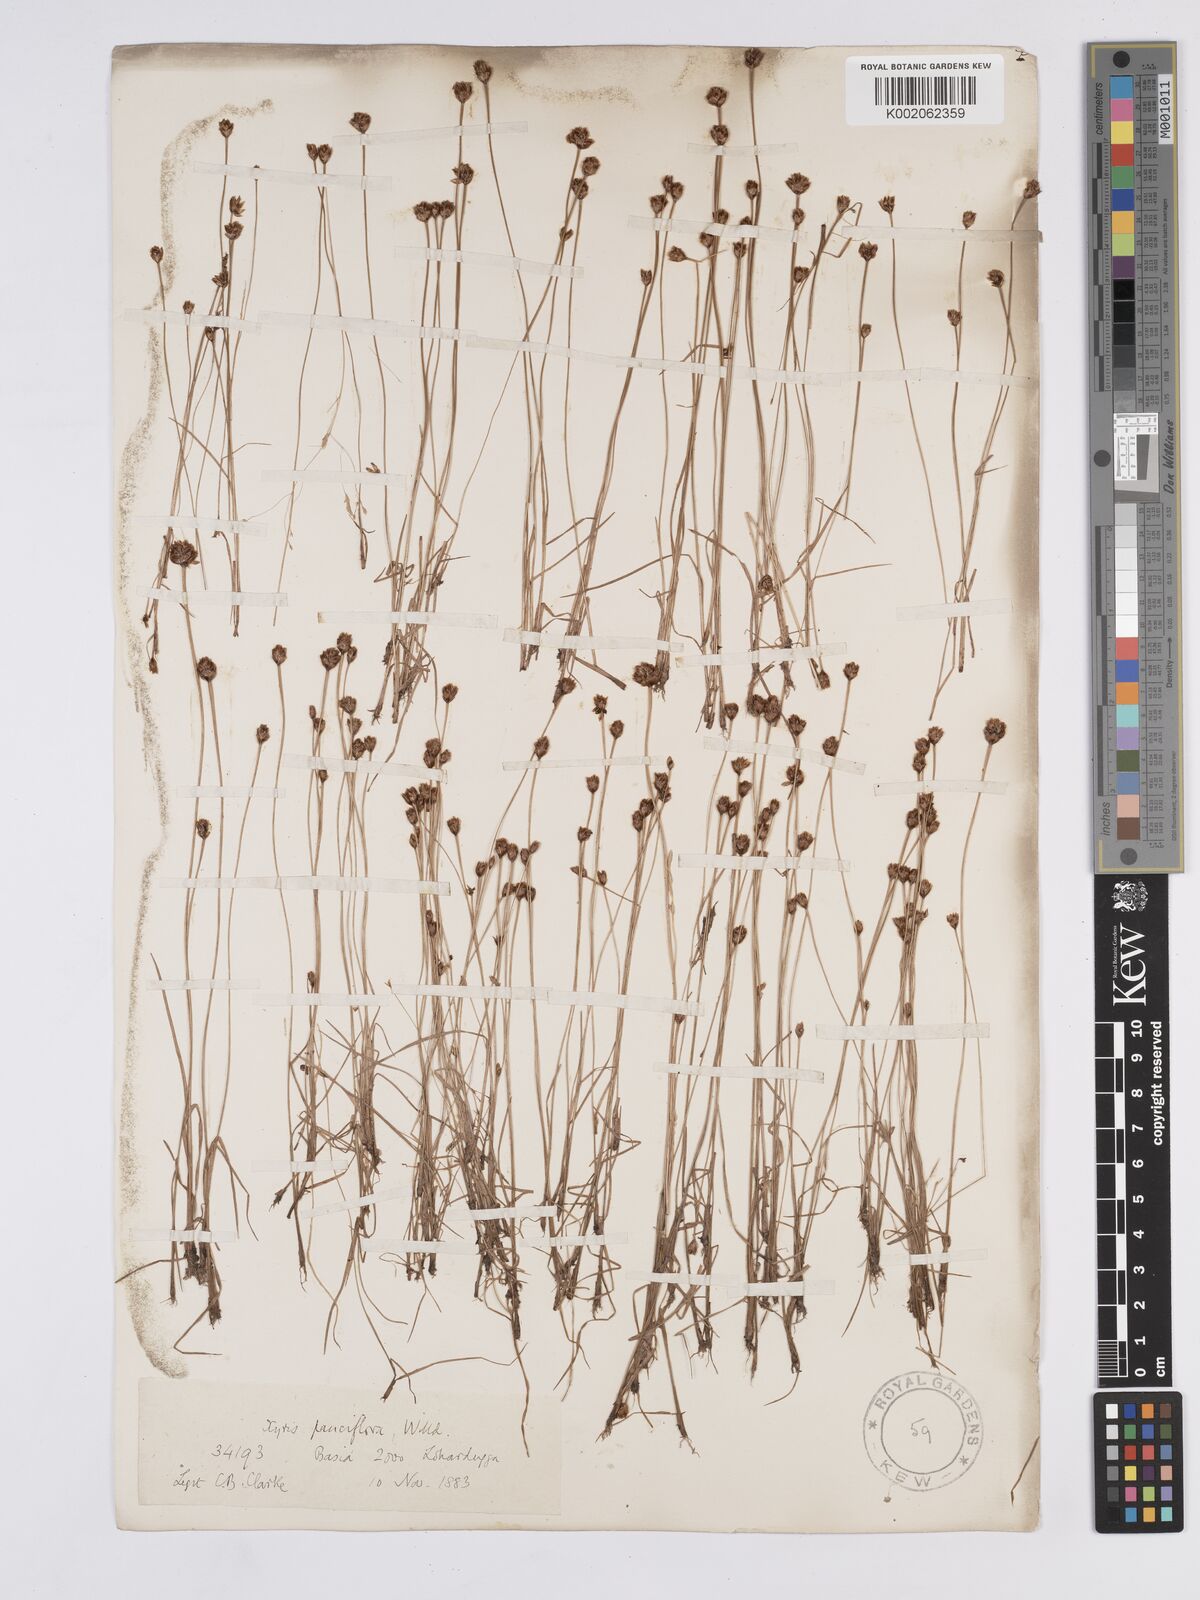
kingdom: Plantae
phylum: Tracheophyta
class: Liliopsida
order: Poales
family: Xyridaceae
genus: Xyris
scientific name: Xyris pauciflora
